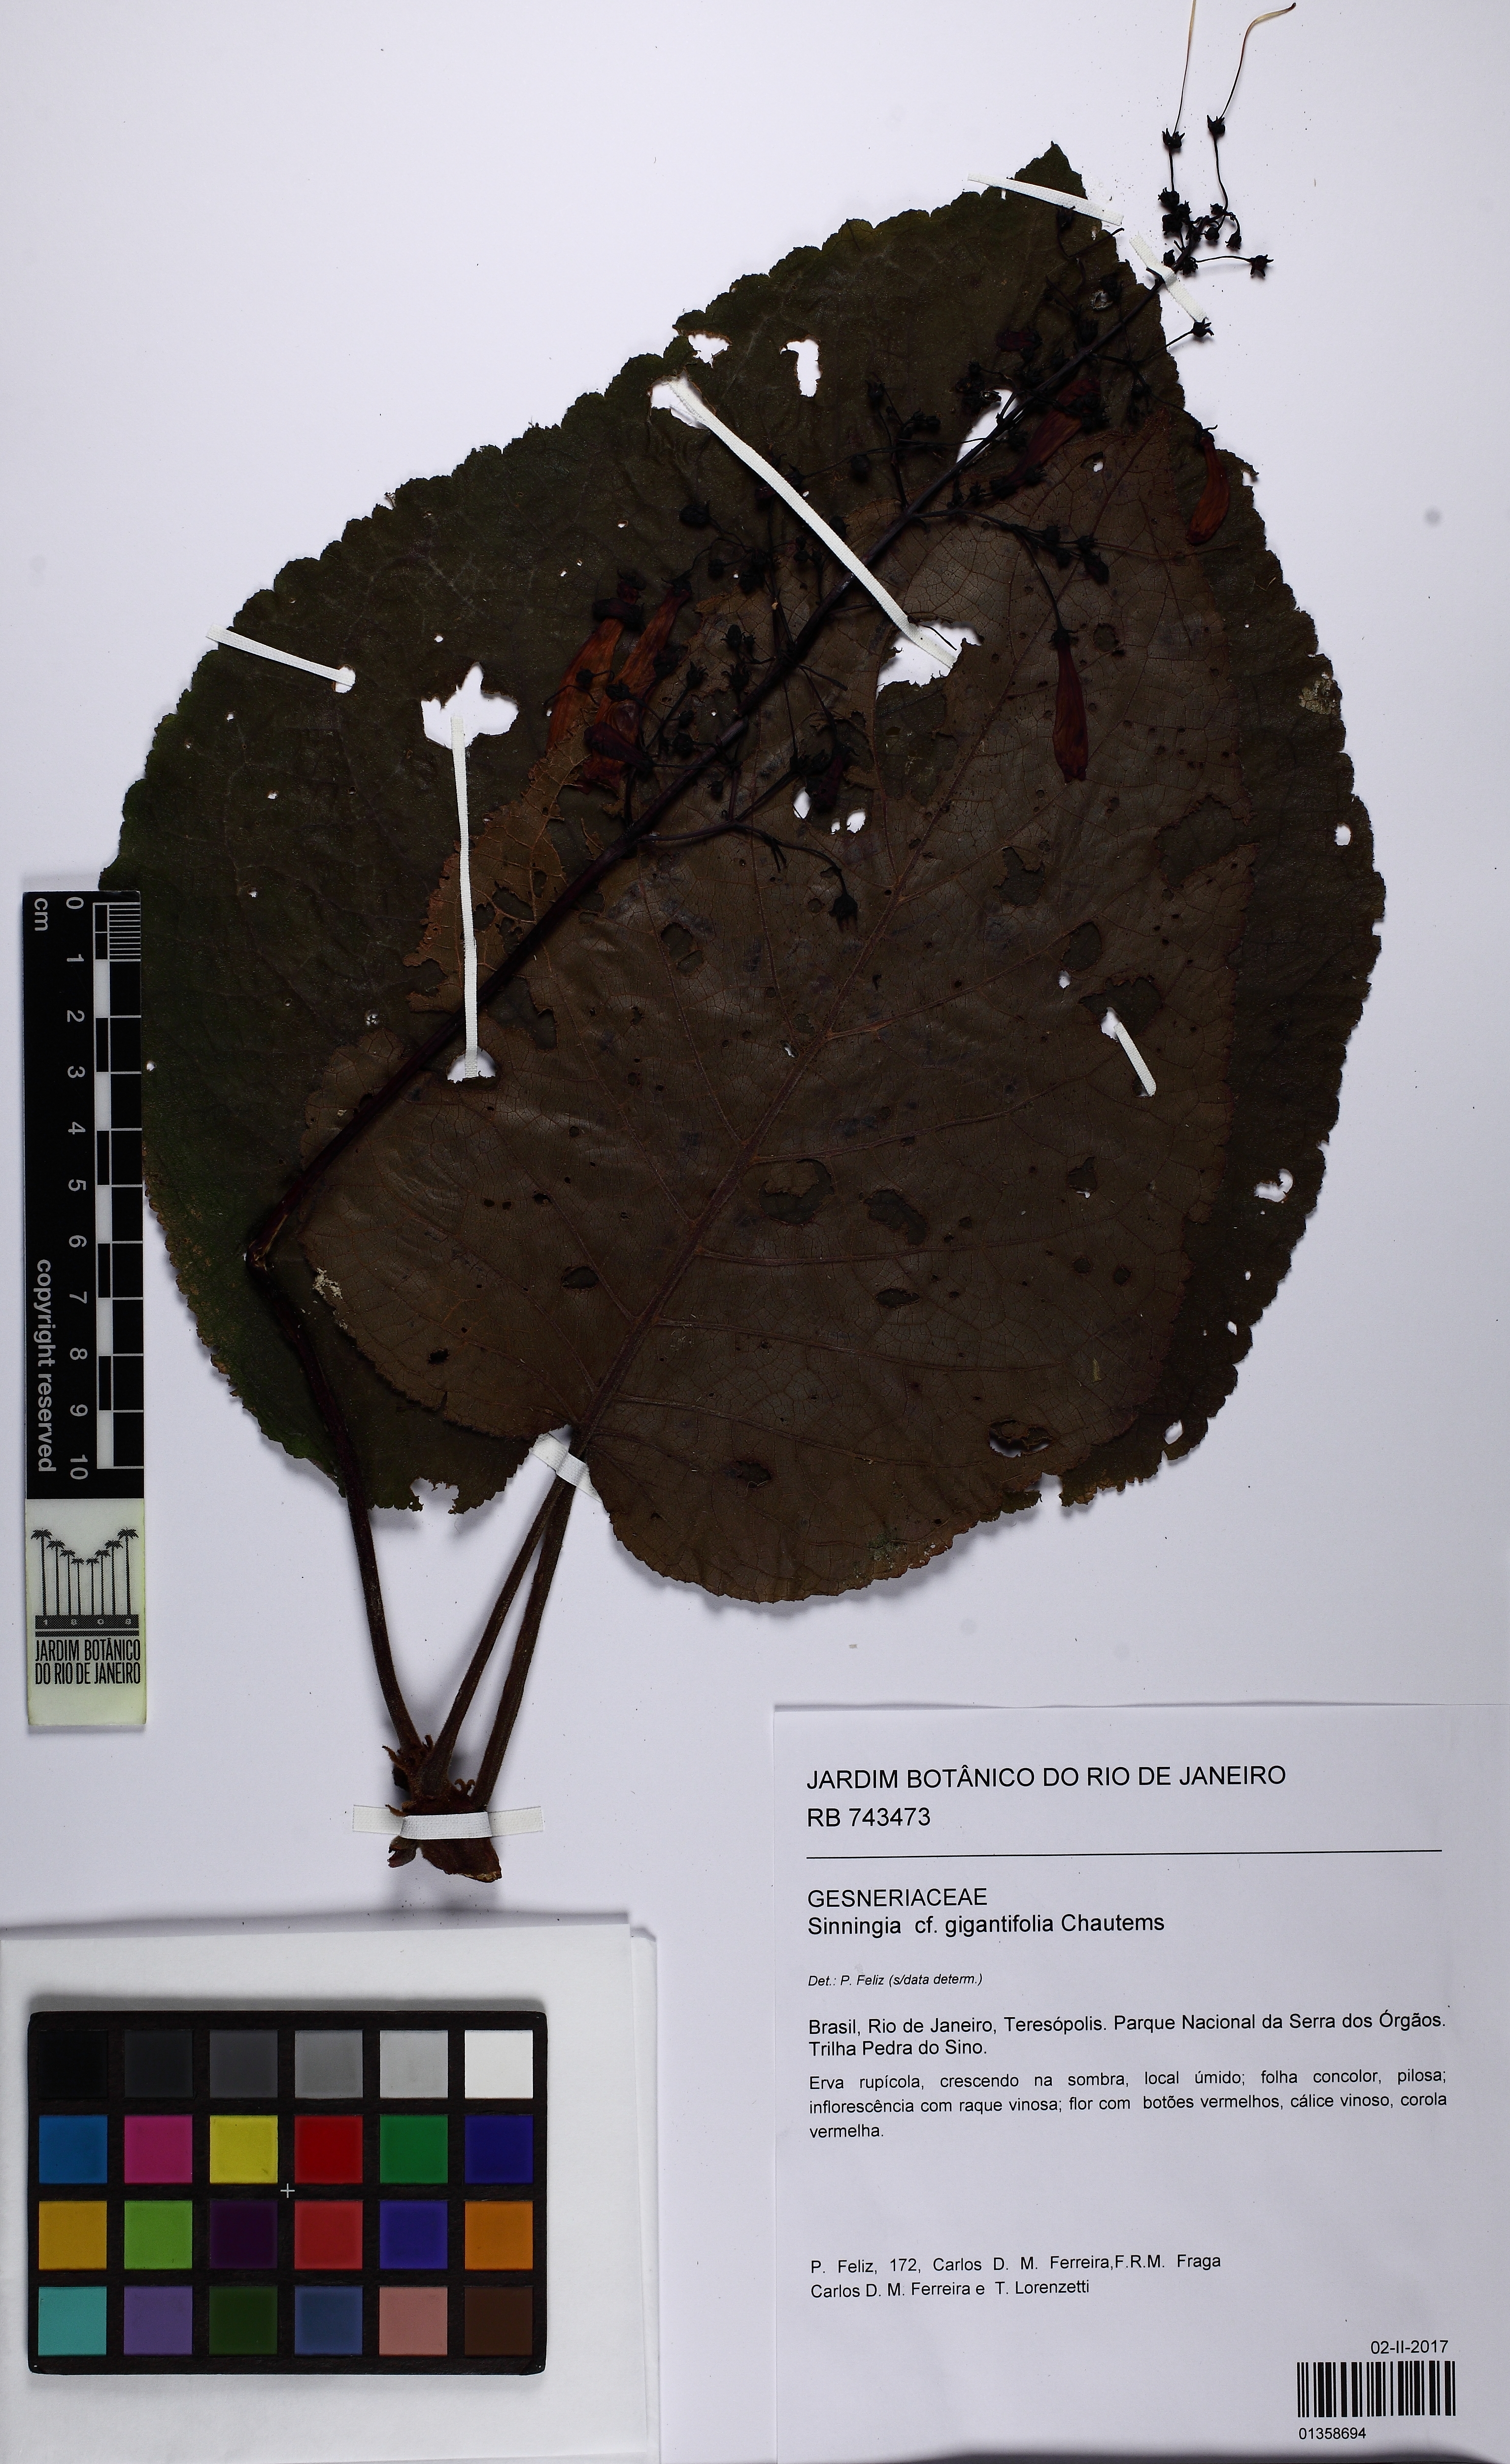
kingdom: Plantae
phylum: Tracheophyta
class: Magnoliopsida
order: Lamiales
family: Gesneriaceae
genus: Sinningia
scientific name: Sinningia gigantifolia
